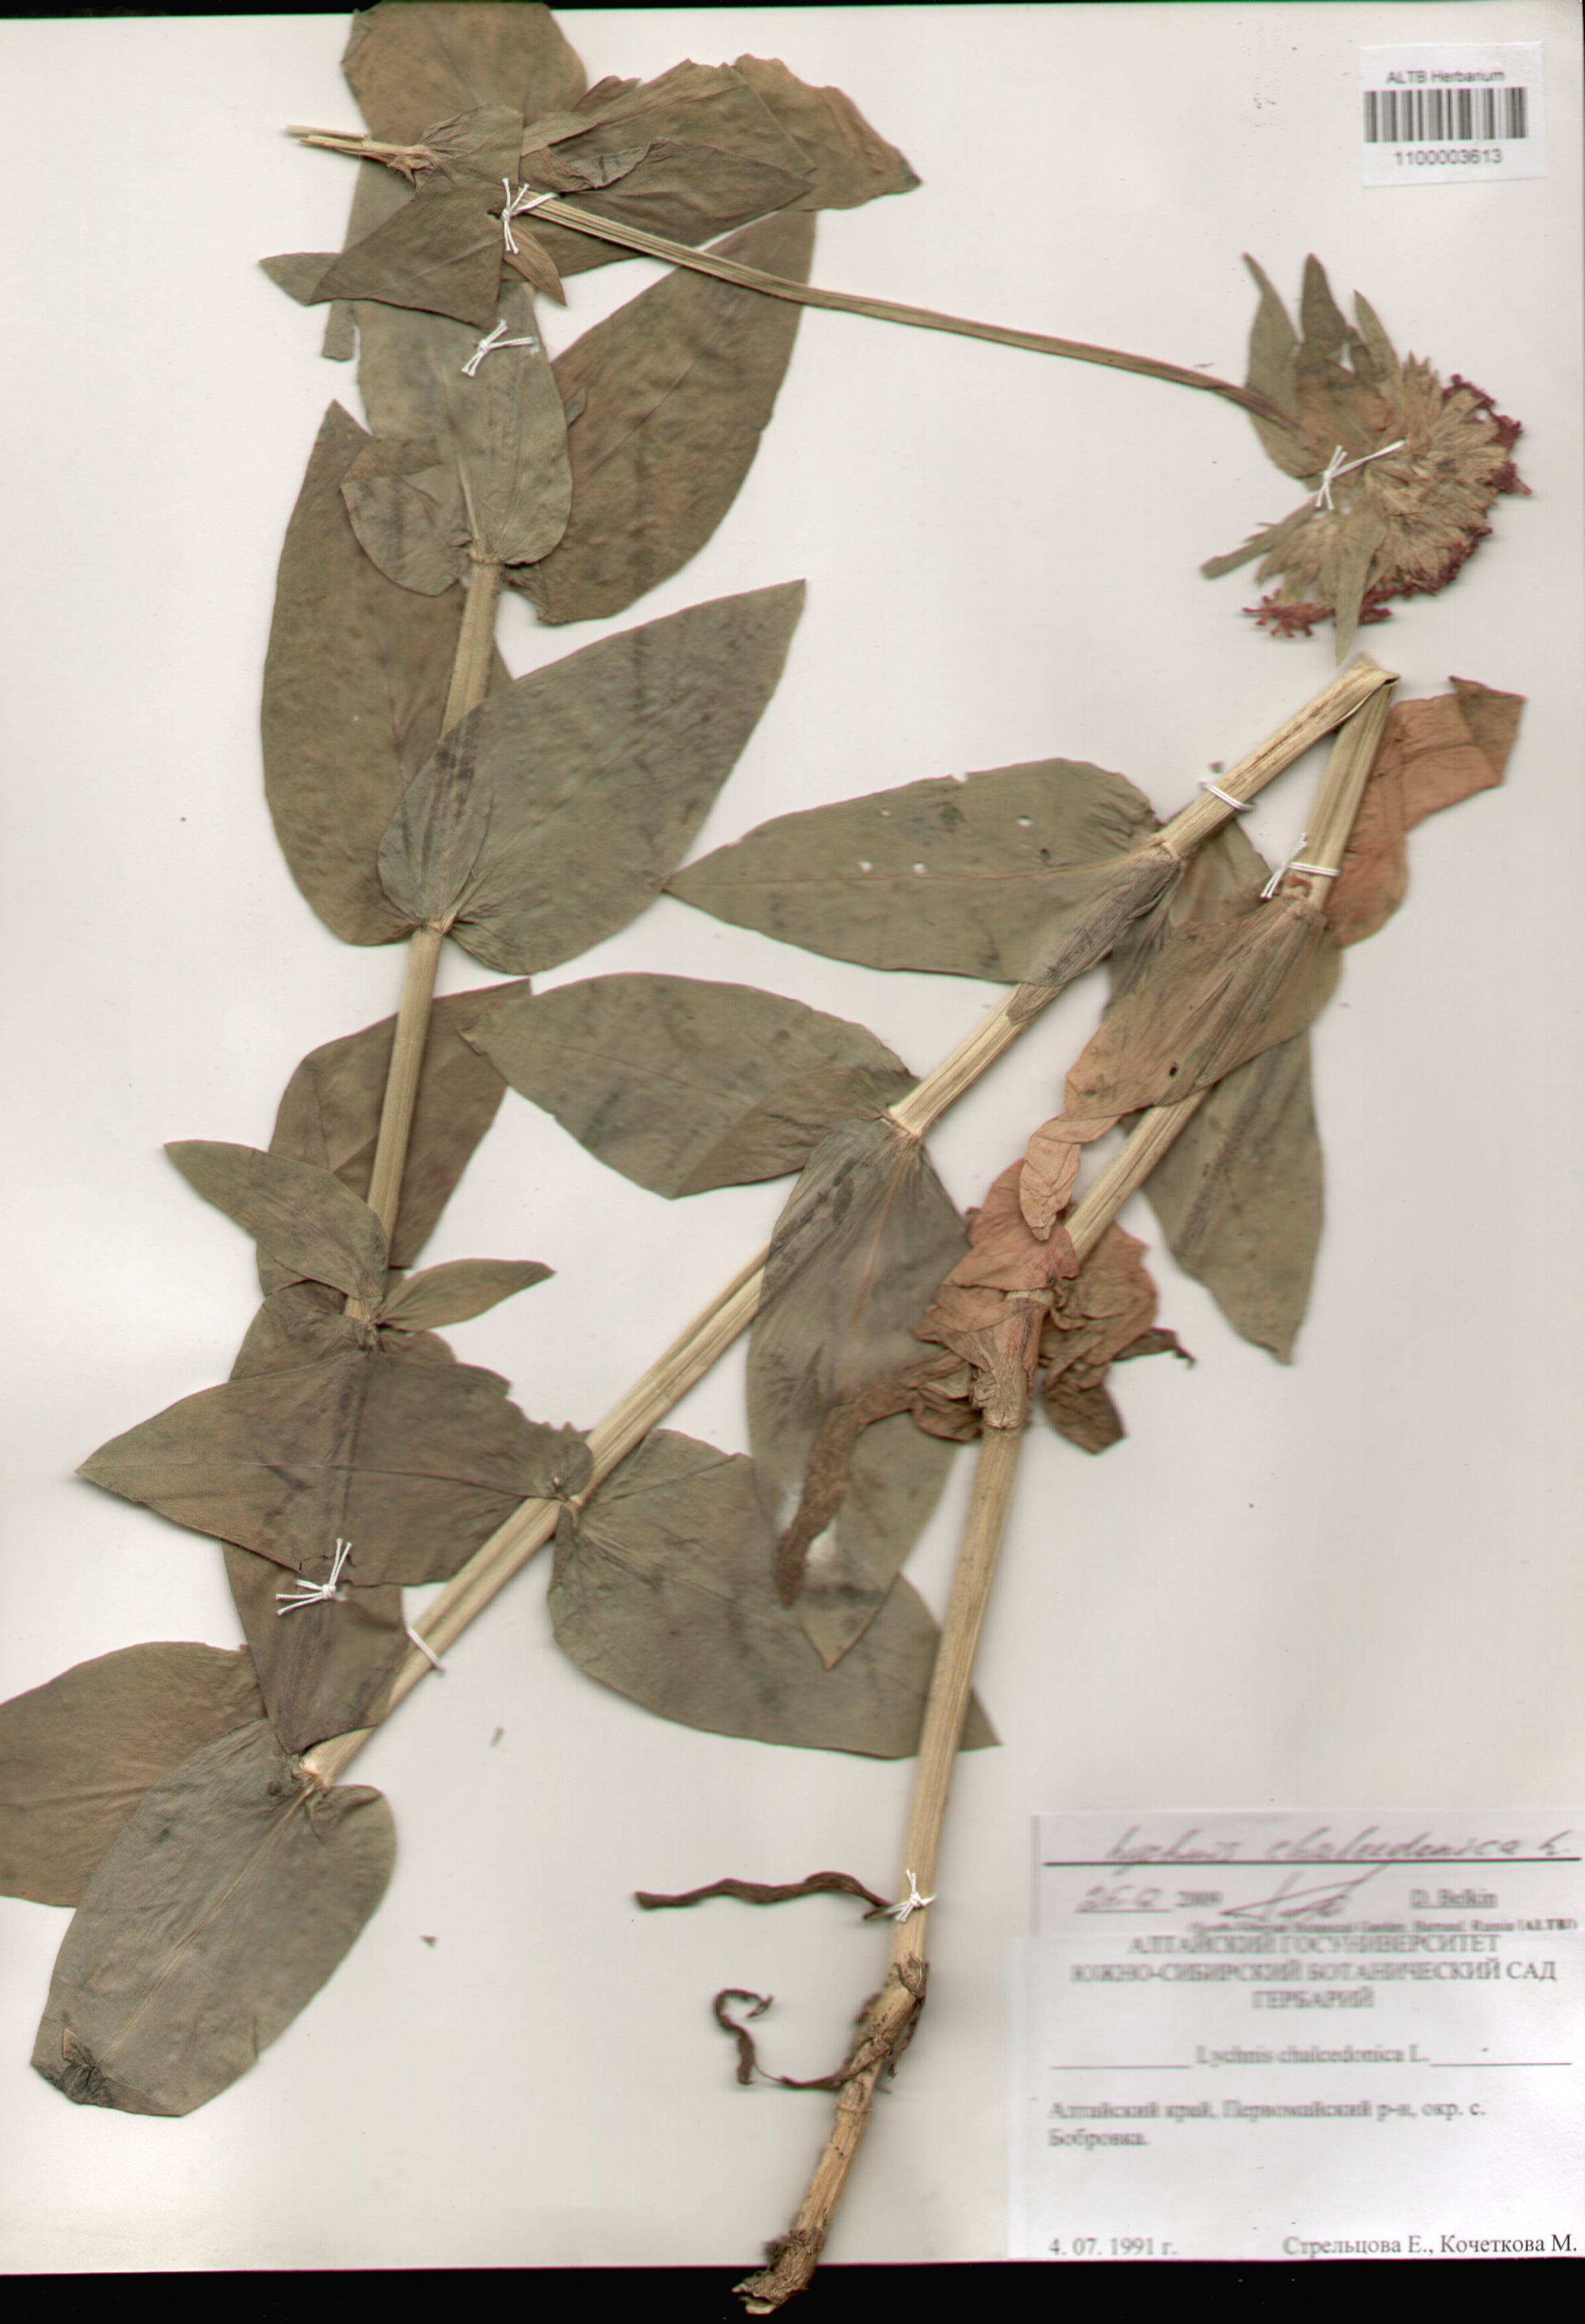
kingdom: Plantae
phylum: Tracheophyta
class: Magnoliopsida
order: Caryophyllales
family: Caryophyllaceae
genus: Silene
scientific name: Silene chalcedonica
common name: Maltese-cross
